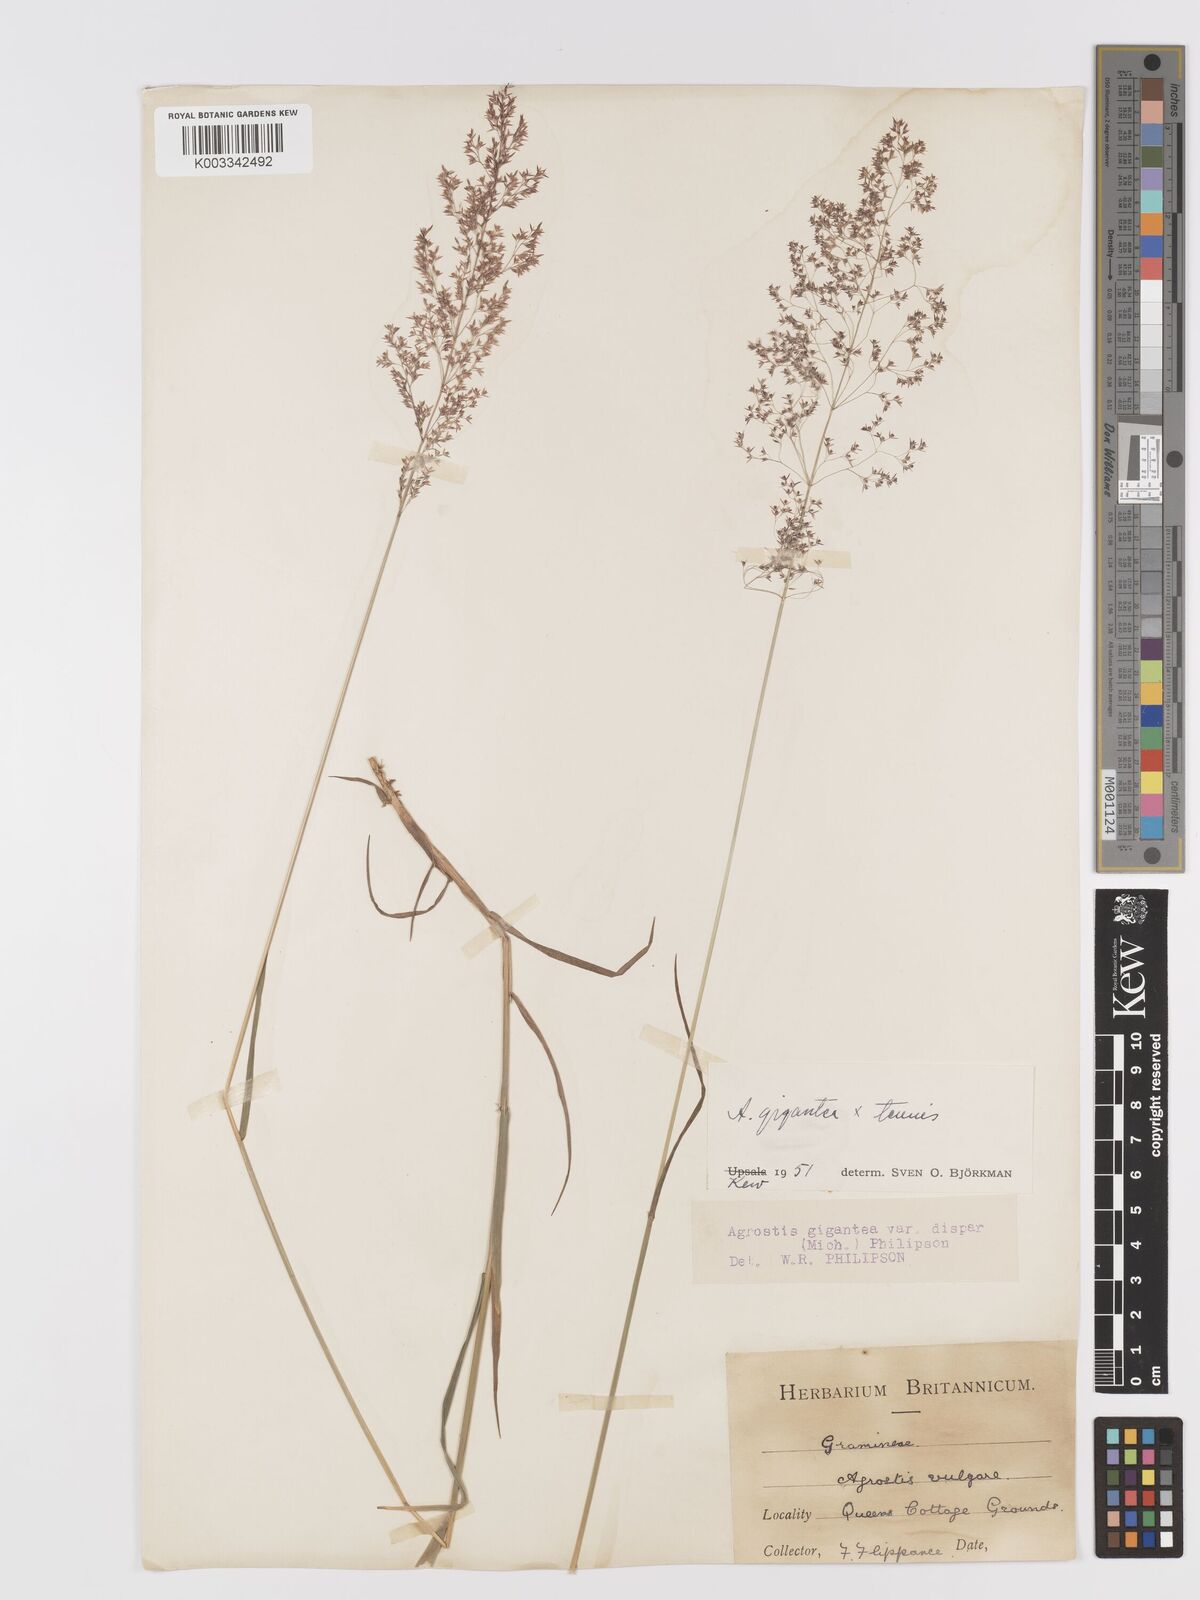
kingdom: Plantae
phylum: Tracheophyta
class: Liliopsida
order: Poales
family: Poaceae
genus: Agrostis
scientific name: Agrostis capillaris
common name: Colonial bentgrass
